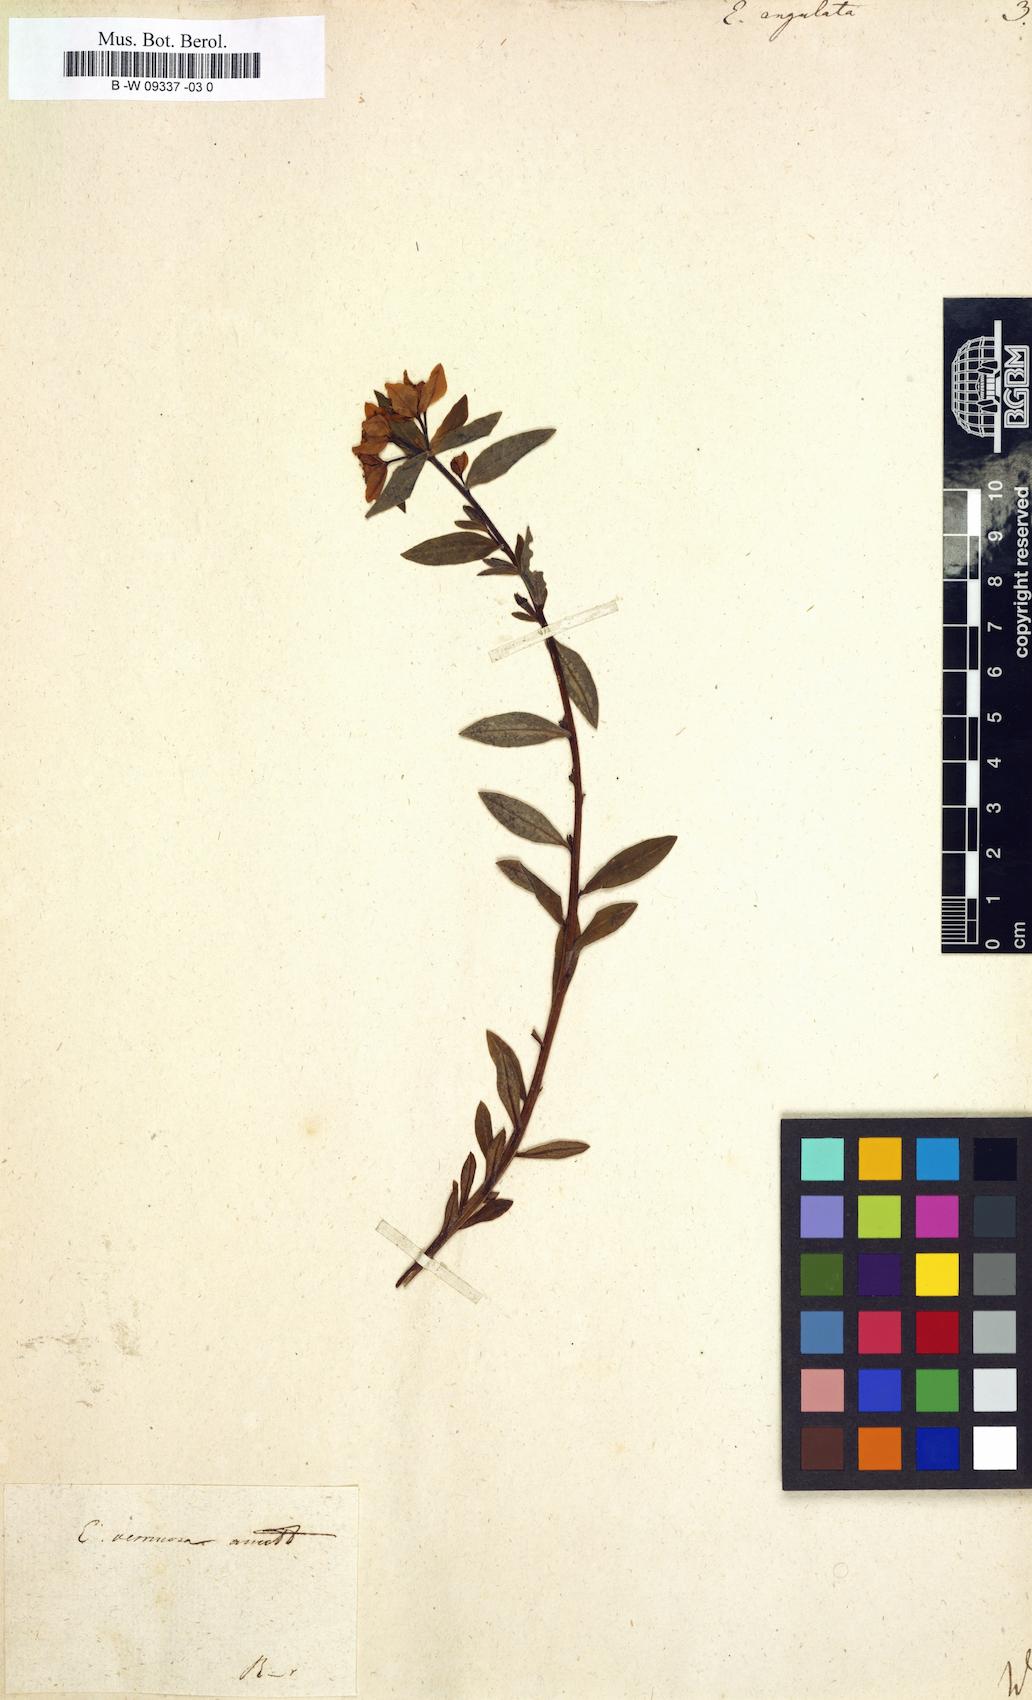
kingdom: Plantae
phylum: Tracheophyta
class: Magnoliopsida
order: Malpighiales
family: Euphorbiaceae
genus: Euphorbia
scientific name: Euphorbia angulata
